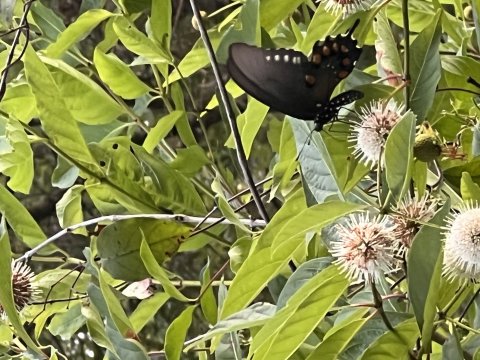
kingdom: Animalia
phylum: Arthropoda
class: Insecta
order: Lepidoptera
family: Papilionidae
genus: Battus
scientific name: Battus philenor
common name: Pipevine Swallowtail
